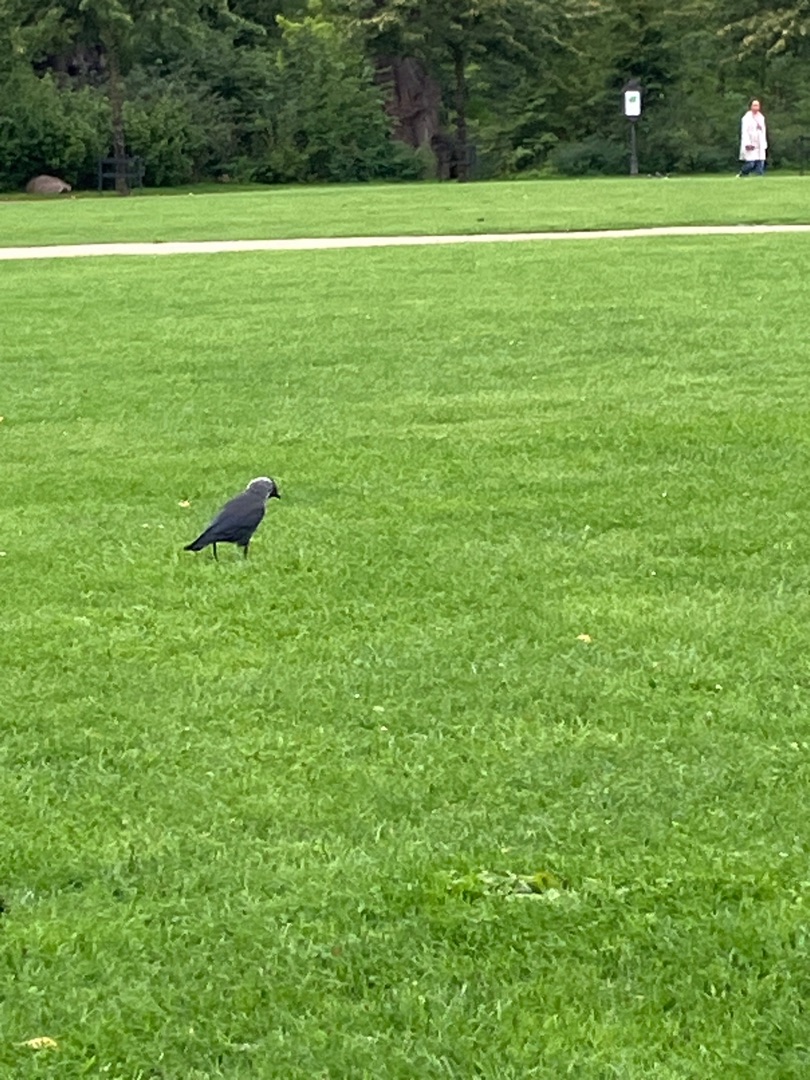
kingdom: Animalia
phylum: Chordata
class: Aves
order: Passeriformes
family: Corvidae
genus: Coloeus
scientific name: Coloeus monedula
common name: Allike
